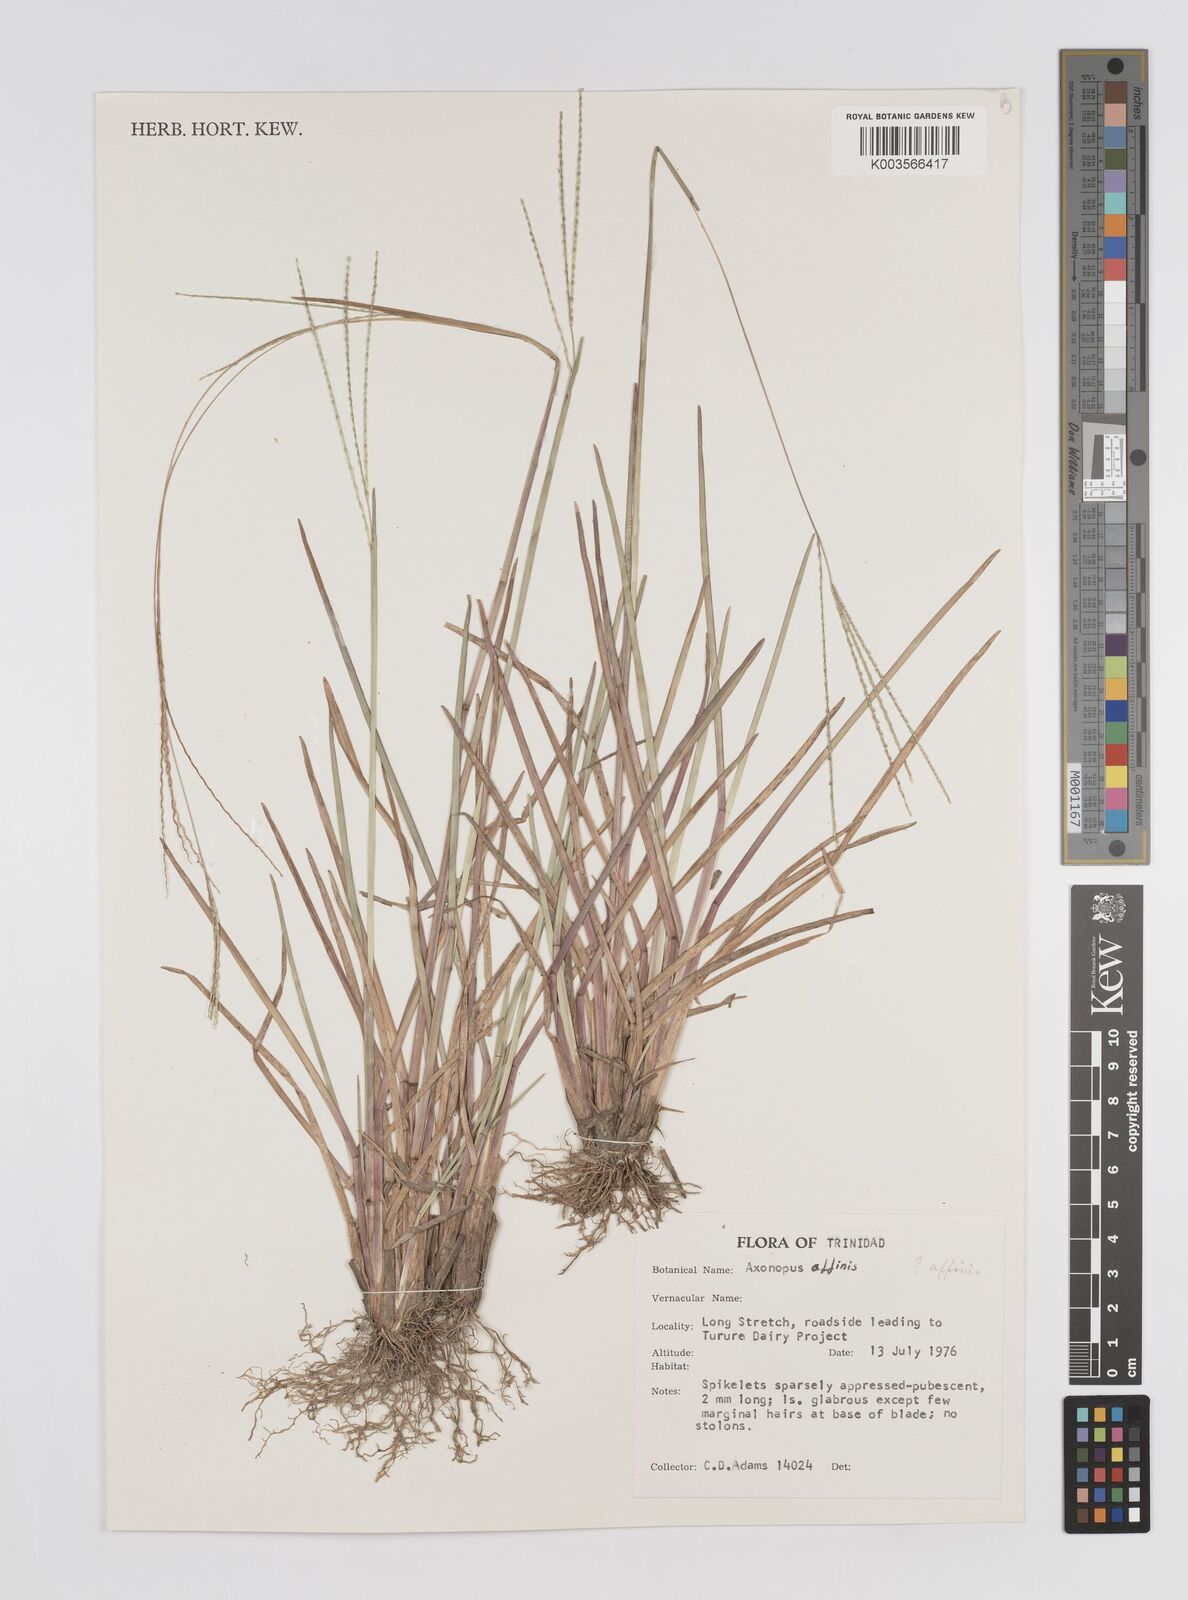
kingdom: Plantae
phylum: Tracheophyta
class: Liliopsida
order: Poales
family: Poaceae
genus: Axonopus
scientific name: Axonopus fissifolius
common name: Common carpetgrass
